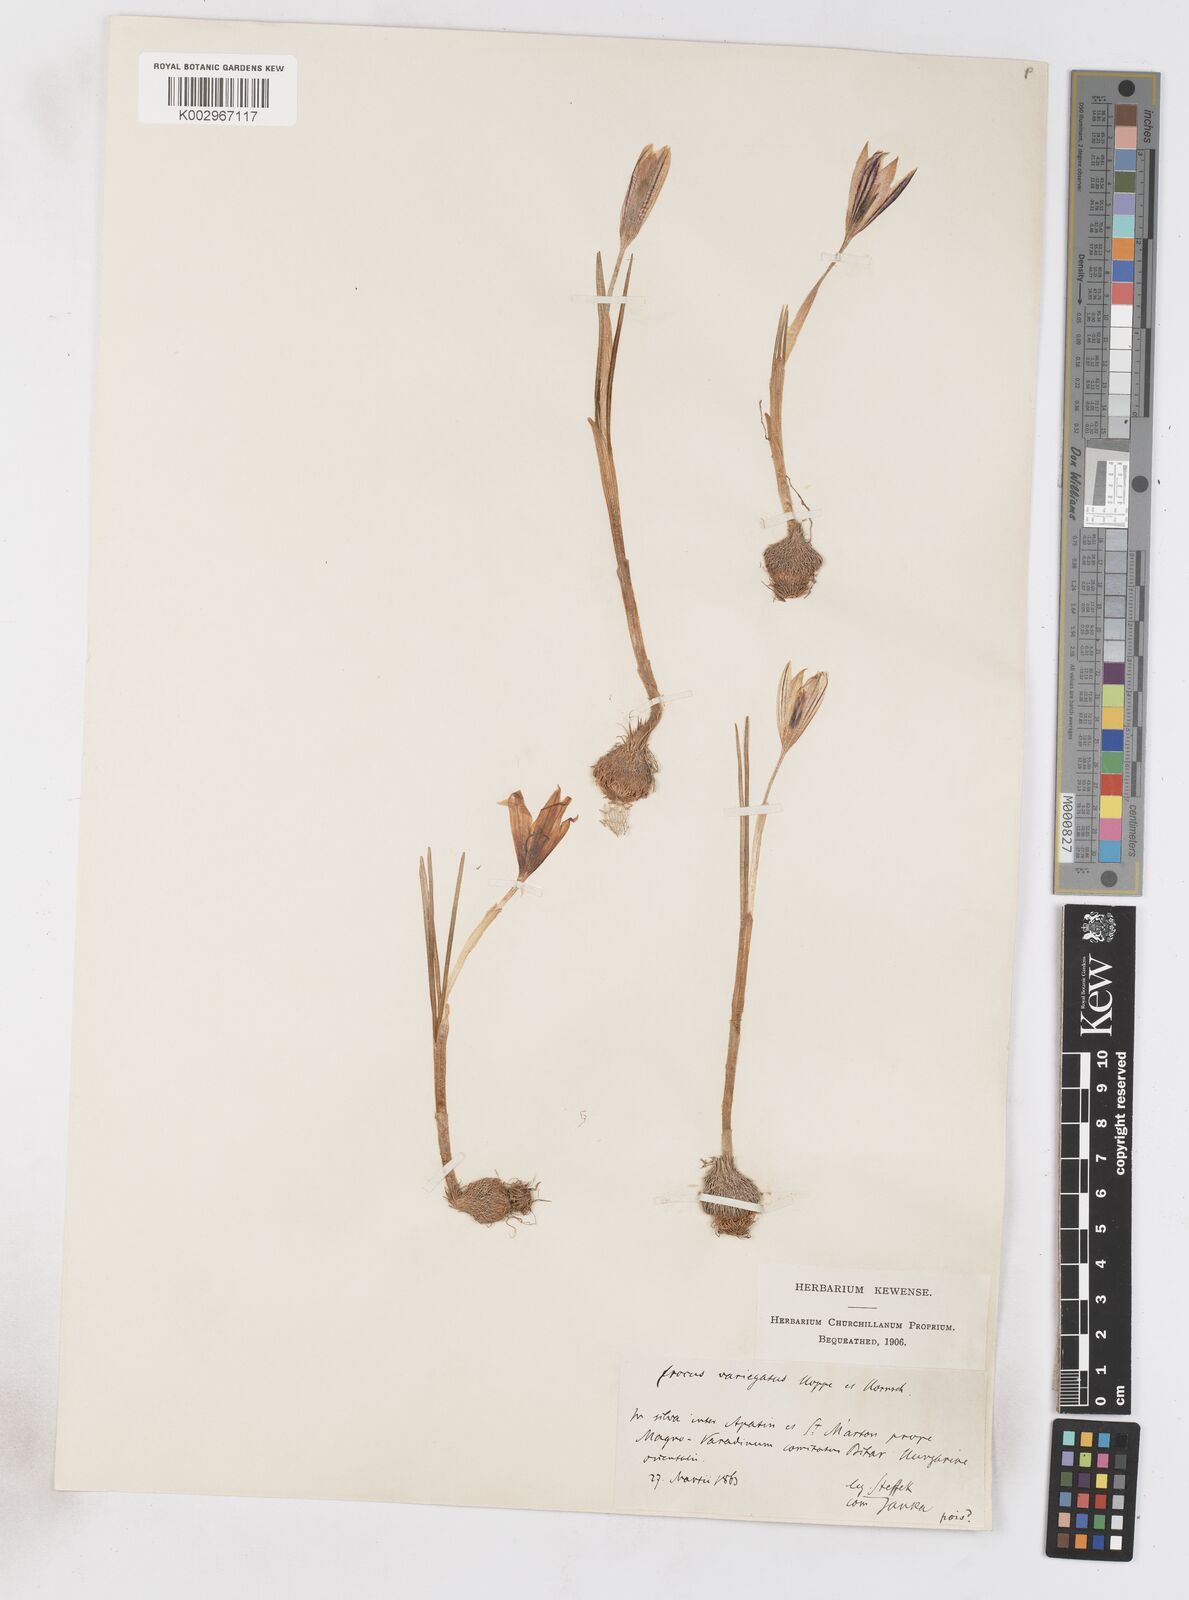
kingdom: Plantae
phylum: Tracheophyta
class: Liliopsida
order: Asparagales
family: Iridaceae
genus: Crocus
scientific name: Crocus reticulatus
